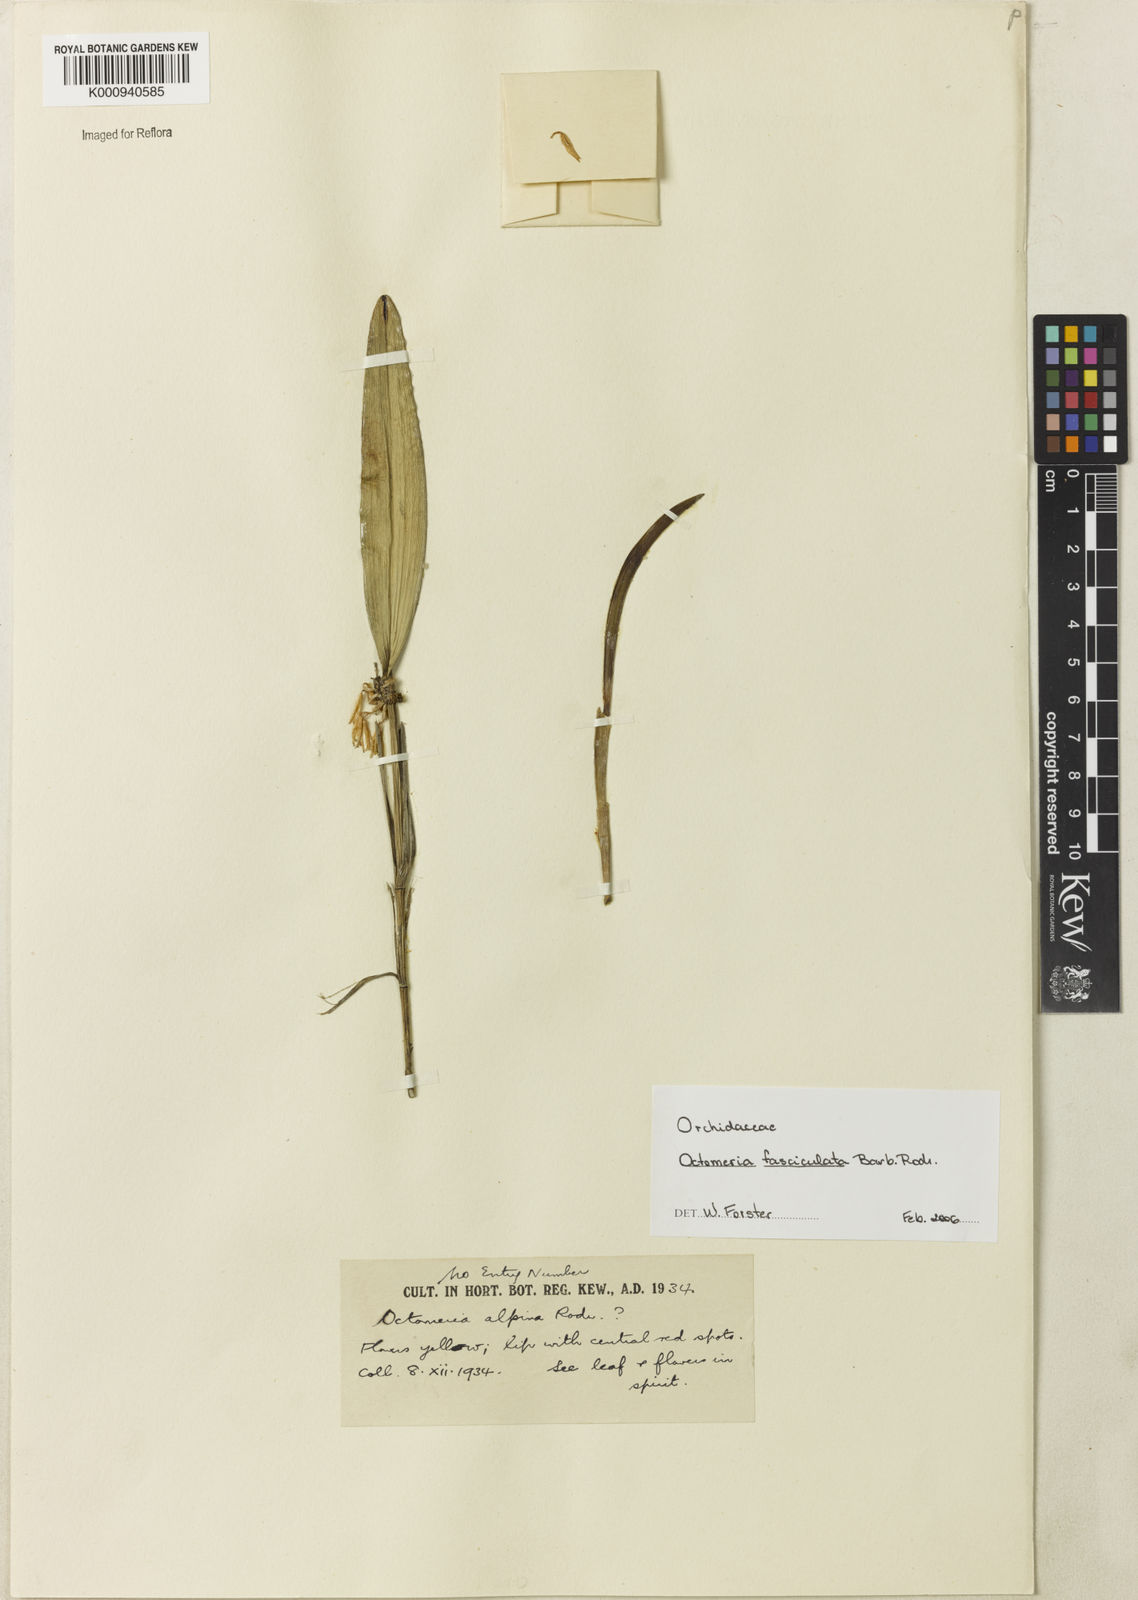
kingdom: Plantae
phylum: Tracheophyta
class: Liliopsida
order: Asparagales
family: Orchidaceae
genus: Octomeria
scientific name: Octomeria fasciculata
